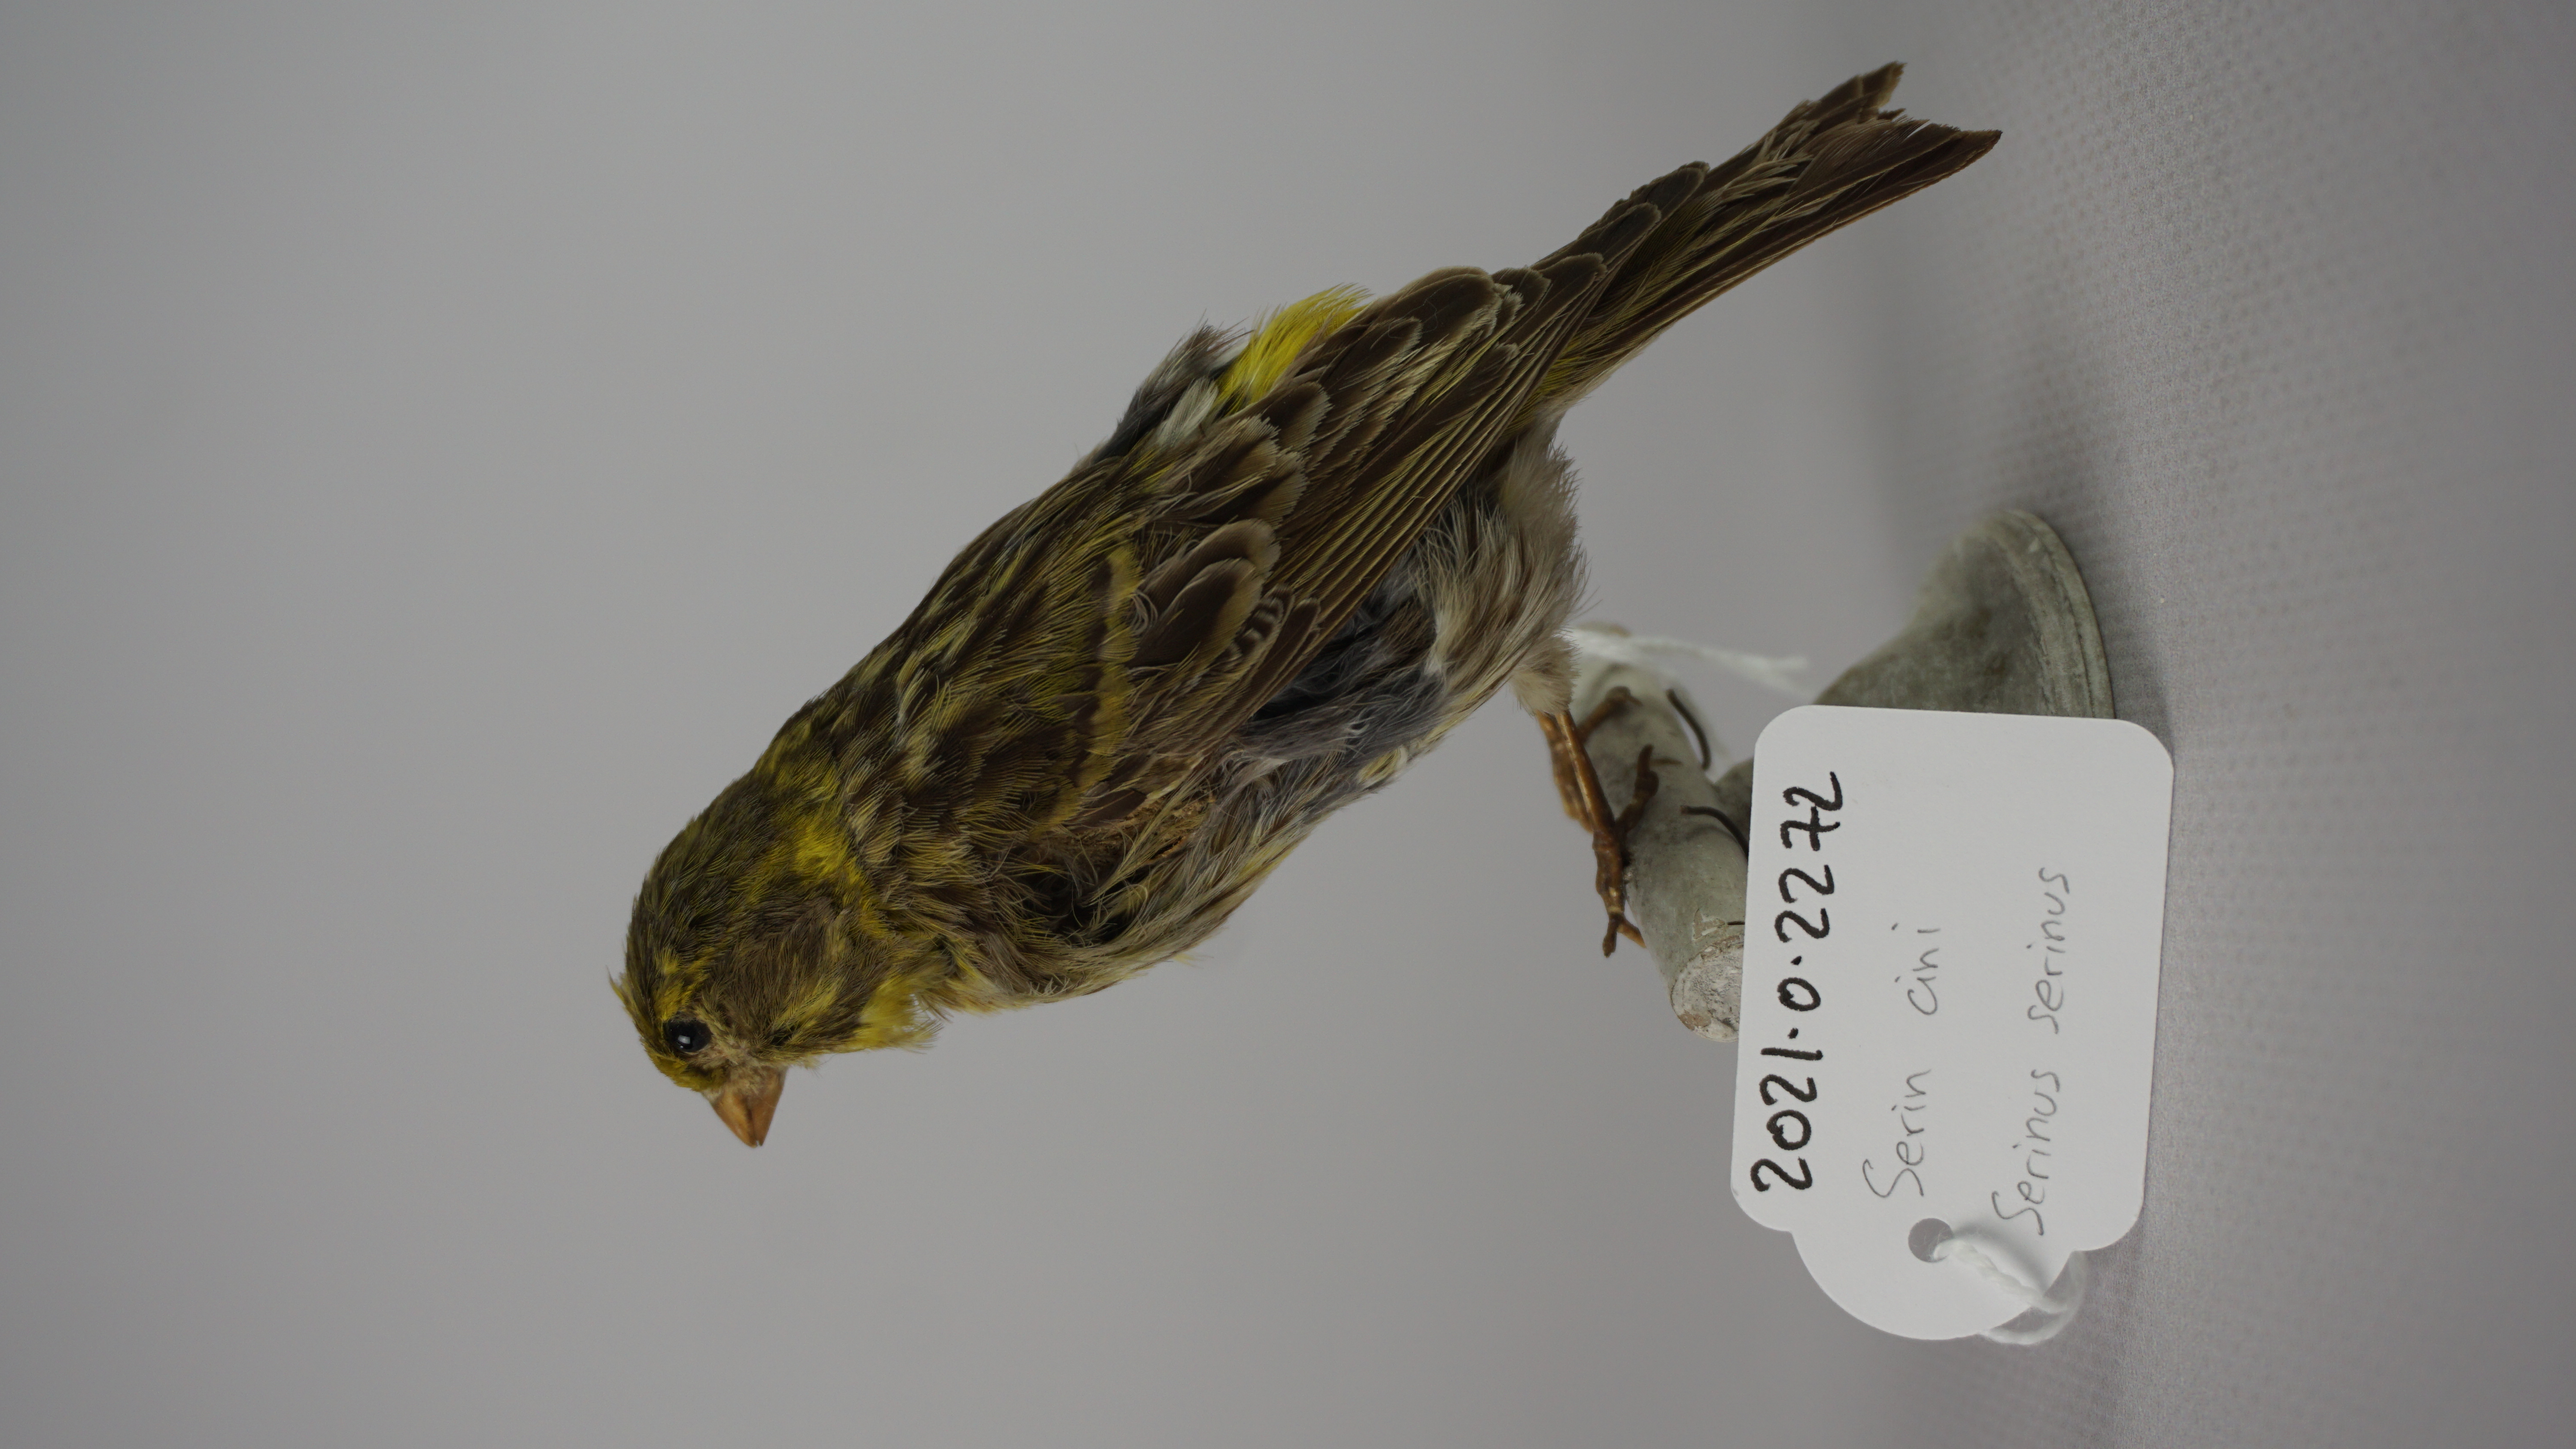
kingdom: Animalia
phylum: Chordata
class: Aves
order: Passeriformes
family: Fringillidae
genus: Serinus
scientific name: Serinus serinus
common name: European serin
